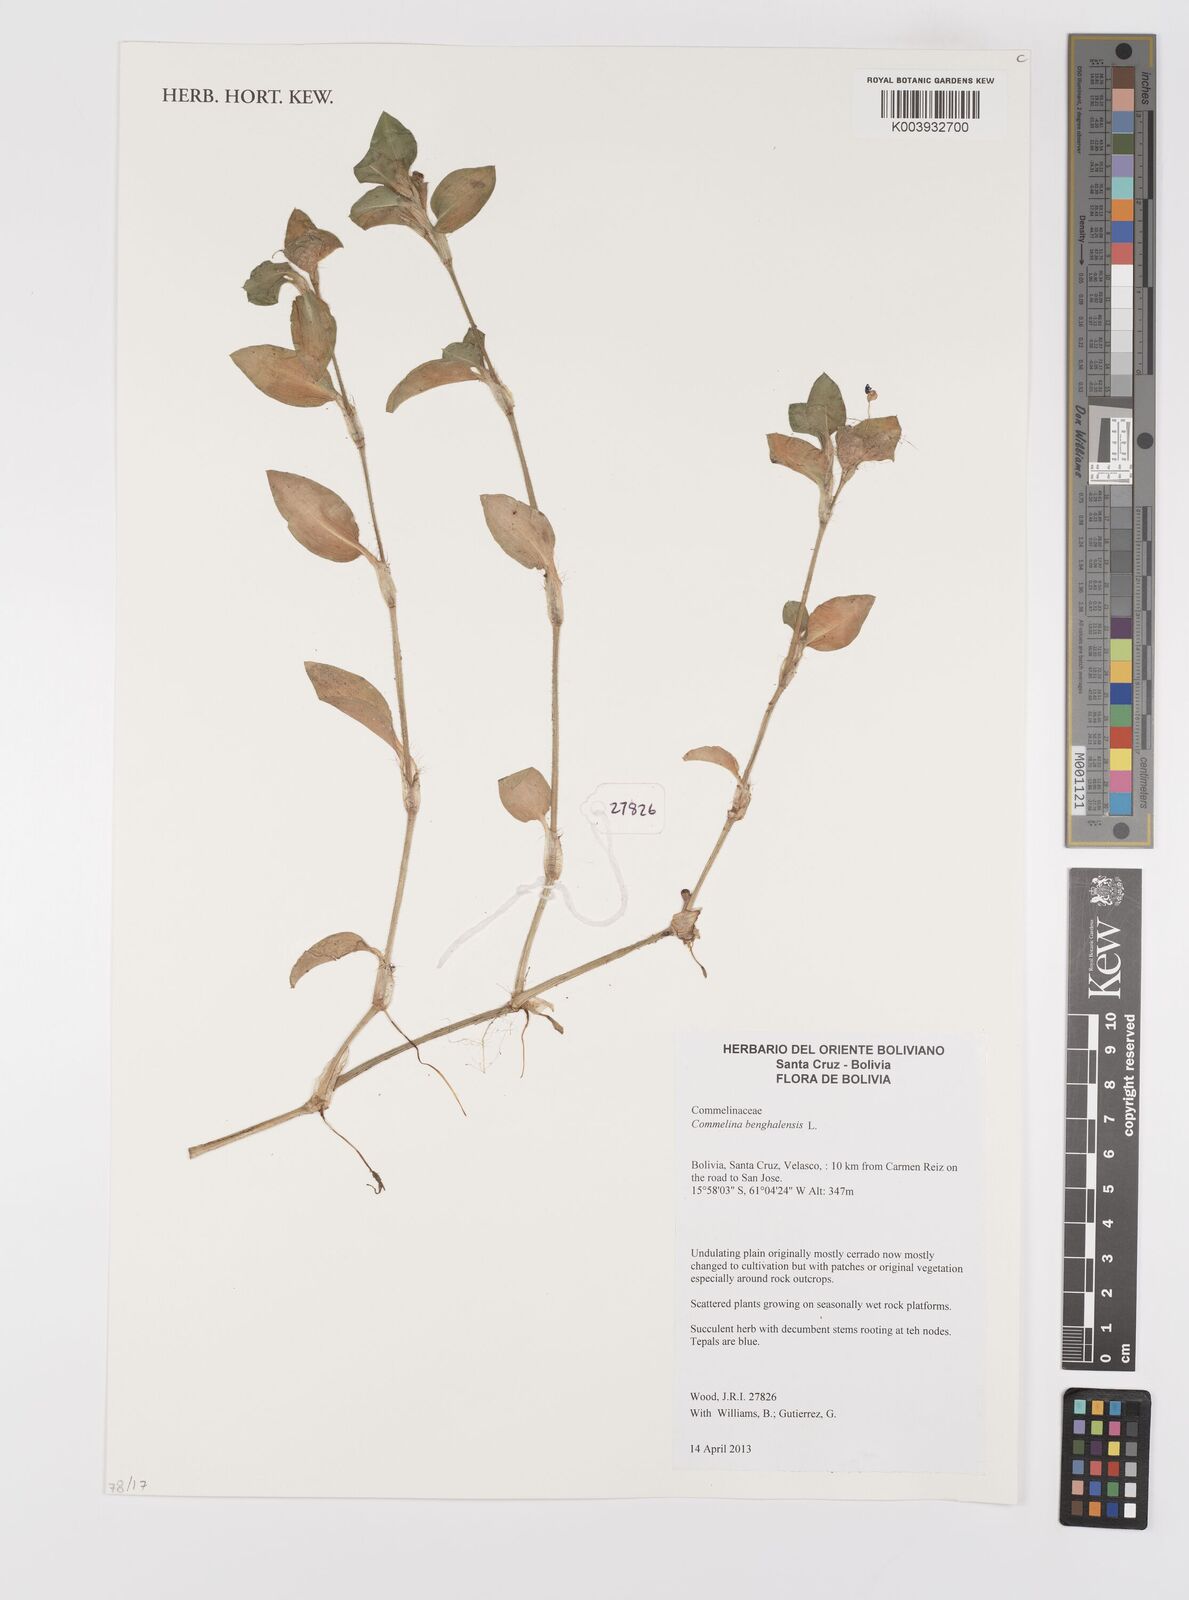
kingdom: Plantae
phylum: Tracheophyta
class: Liliopsida
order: Commelinales
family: Commelinaceae
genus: Commelina
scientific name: Commelina benghalensis
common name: Jio
